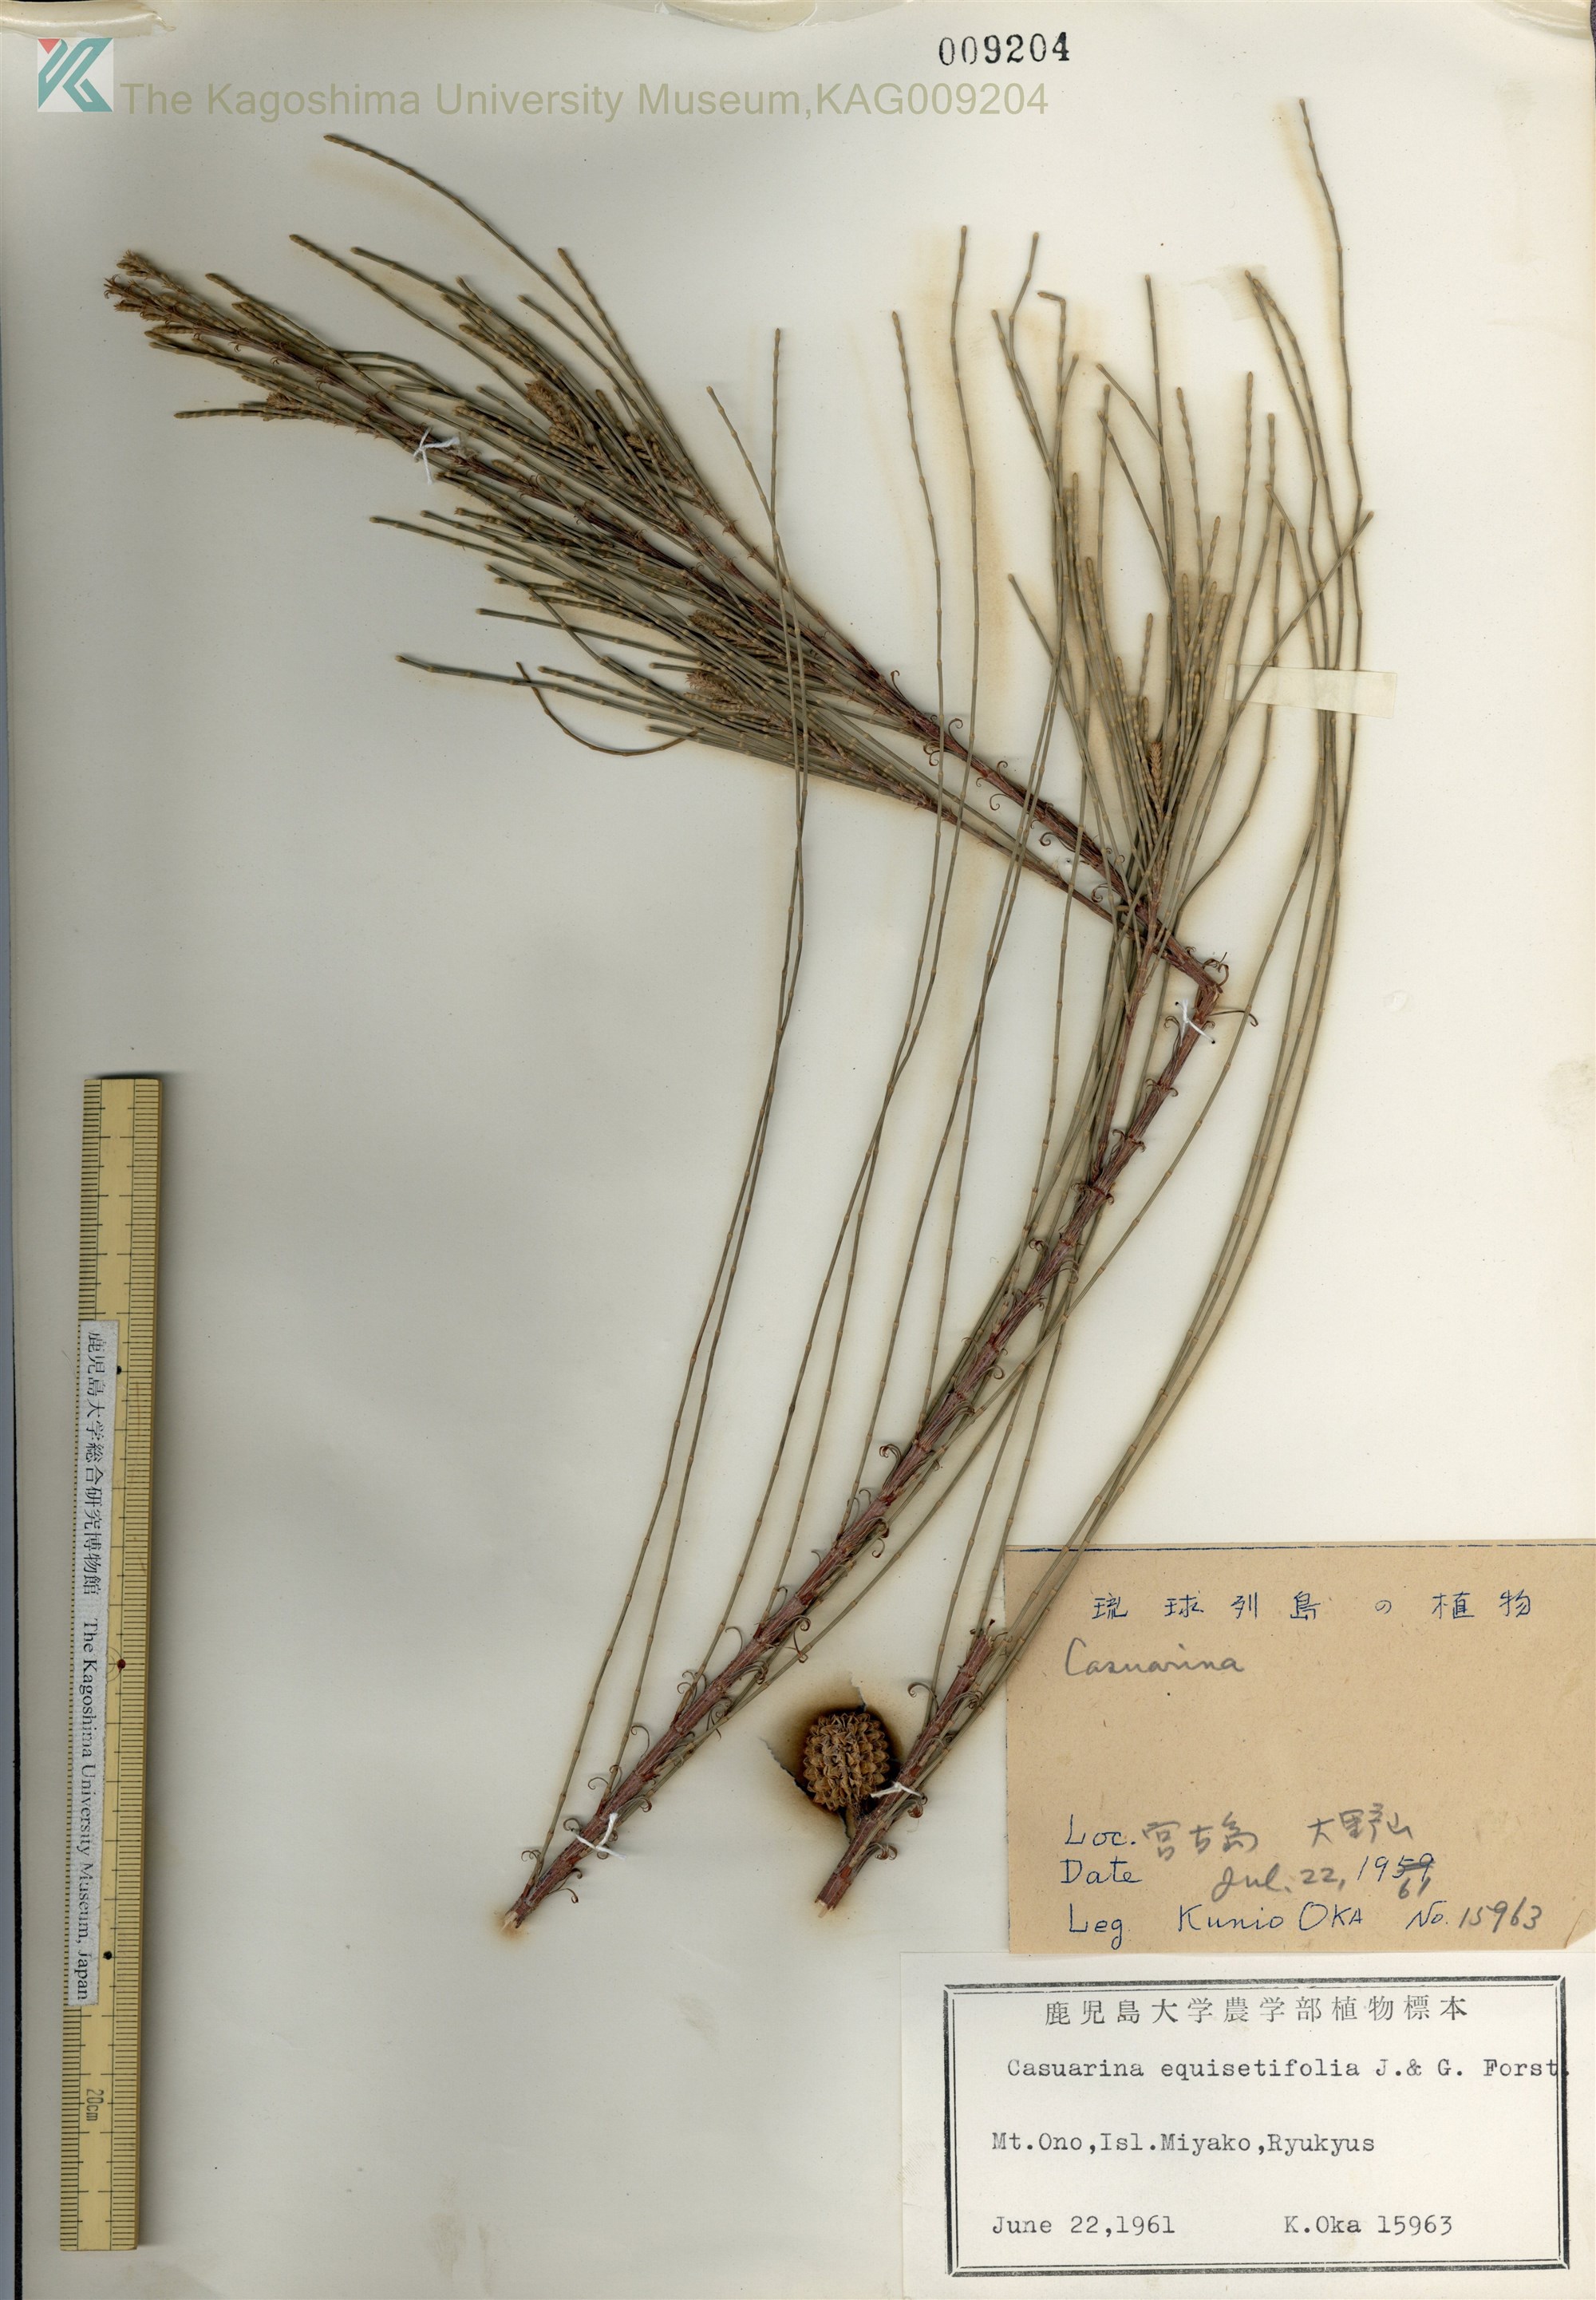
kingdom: Plantae
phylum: Tracheophyta
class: Magnoliopsida
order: Fagales
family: Casuarinaceae
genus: Casuarina
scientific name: Casuarina equisetifolia
